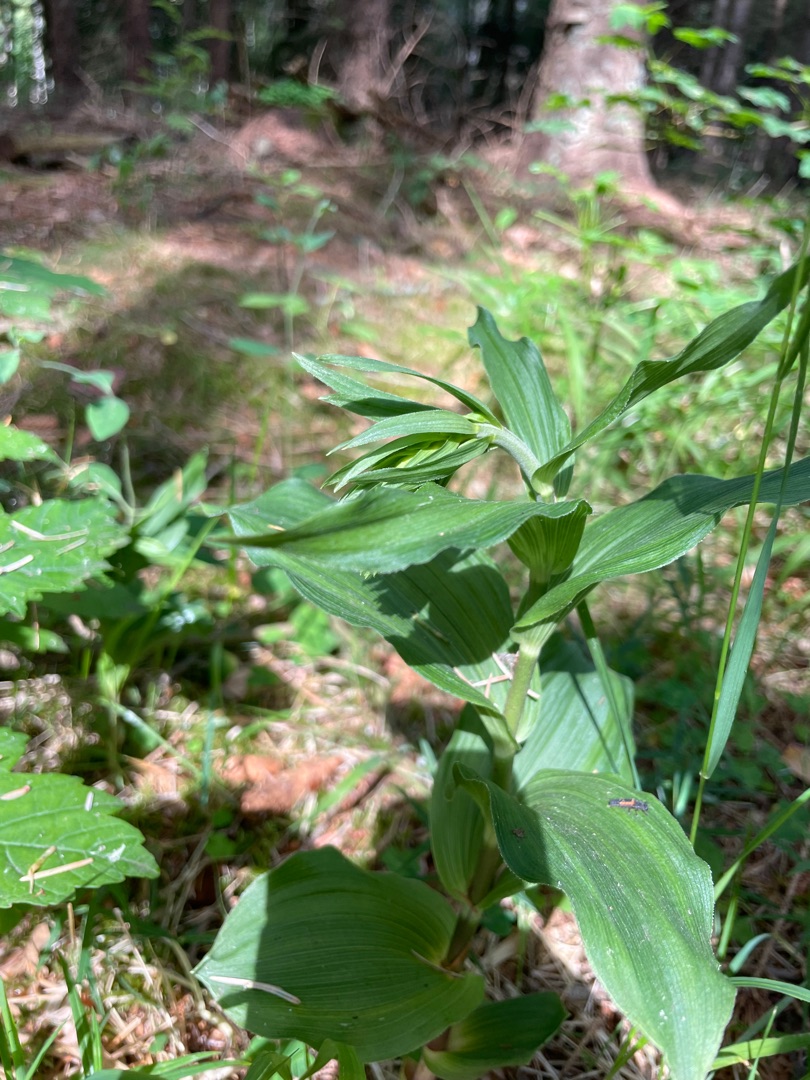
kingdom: Plantae
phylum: Tracheophyta
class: Liliopsida
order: Asparagales
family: Orchidaceae
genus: Epipactis
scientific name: Epipactis helleborine
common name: Skov-hullæbe
